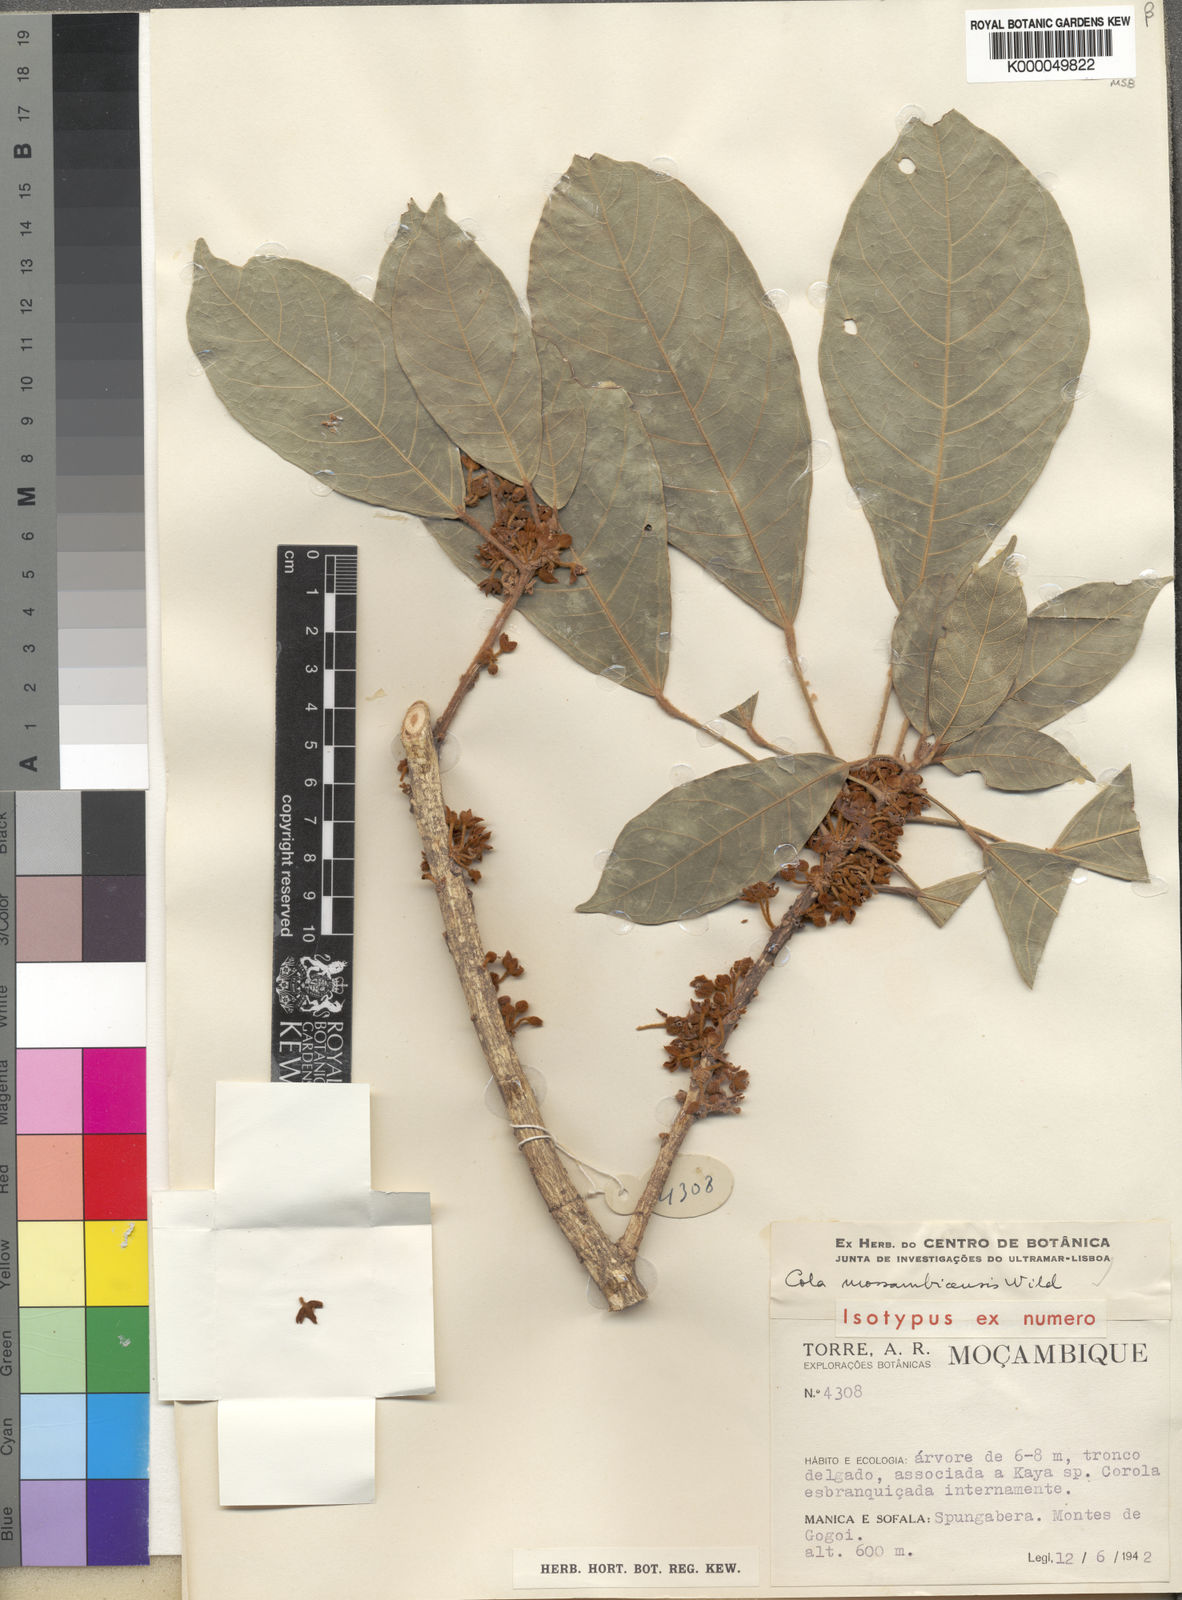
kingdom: Plantae
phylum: Tracheophyta
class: Magnoliopsida
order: Malvales
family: Malvaceae
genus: Cola
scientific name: Cola mossambicensis
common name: Large-leaved cola
